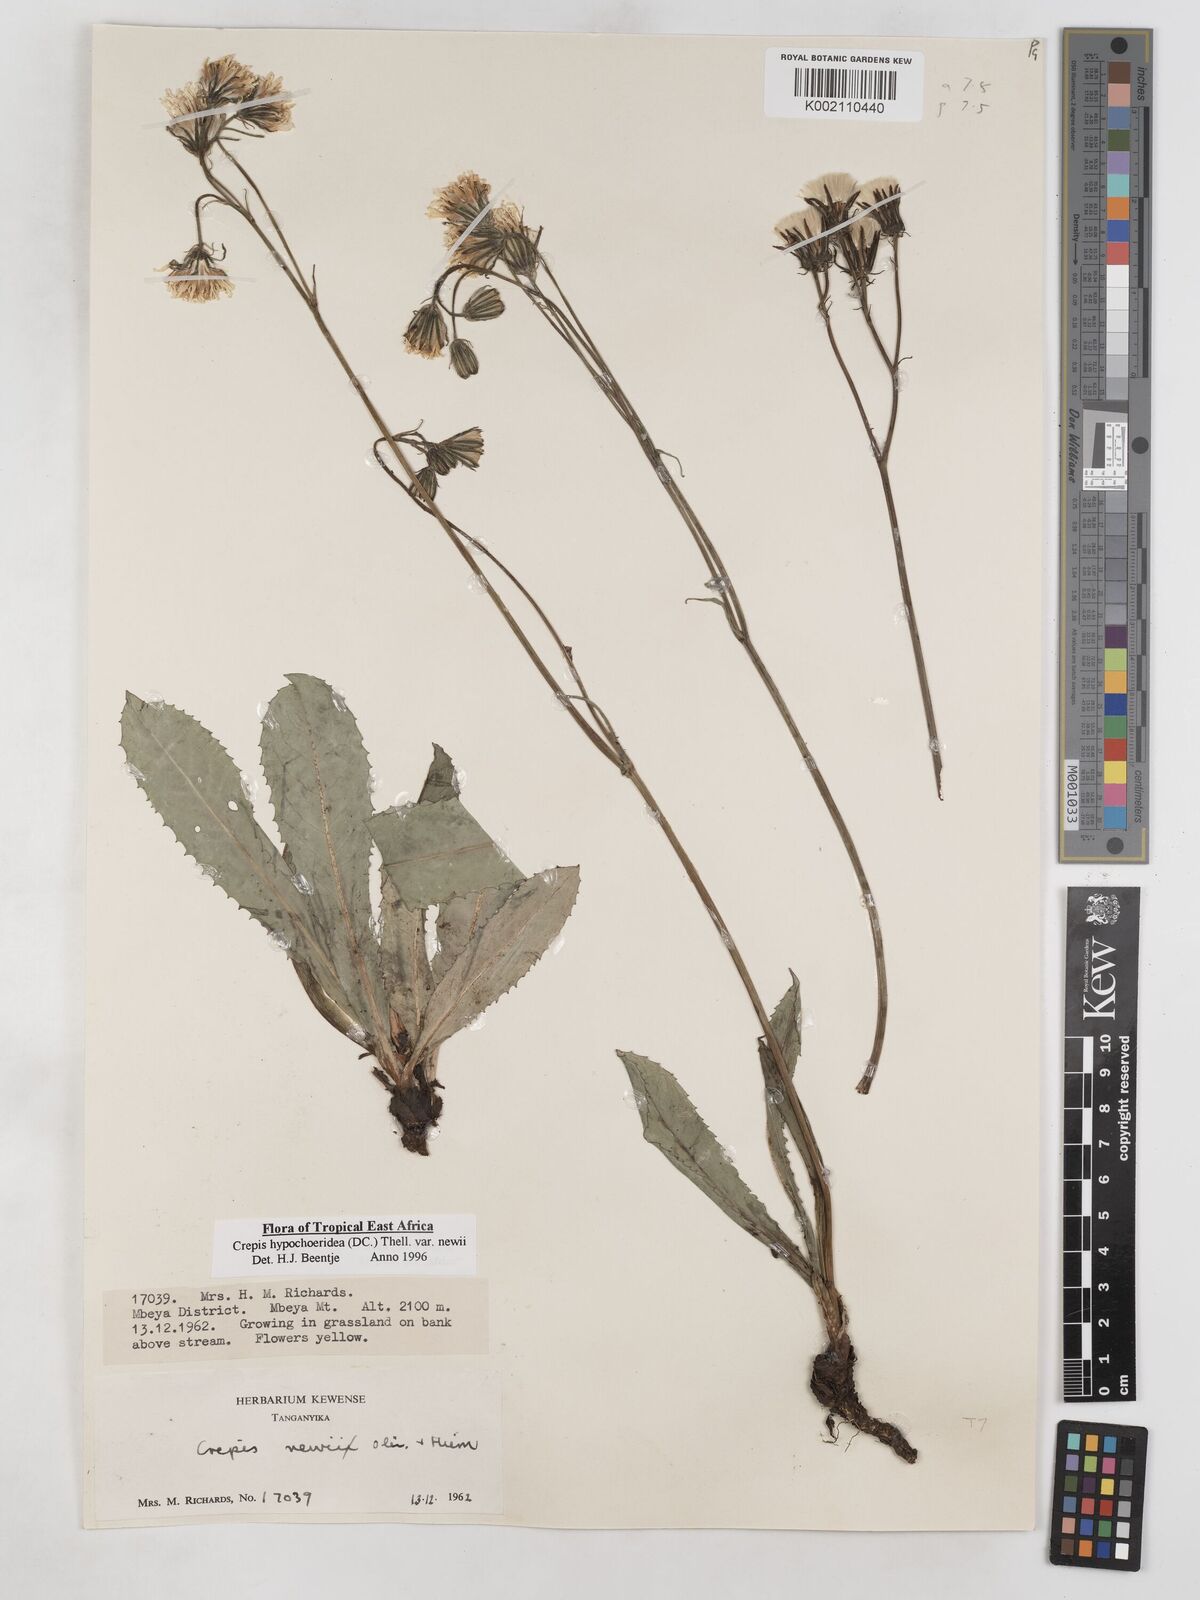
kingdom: Plantae
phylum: Tracheophyta
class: Magnoliopsida
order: Asterales
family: Asteraceae
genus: Crepis
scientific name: Crepis hypochoeridea
